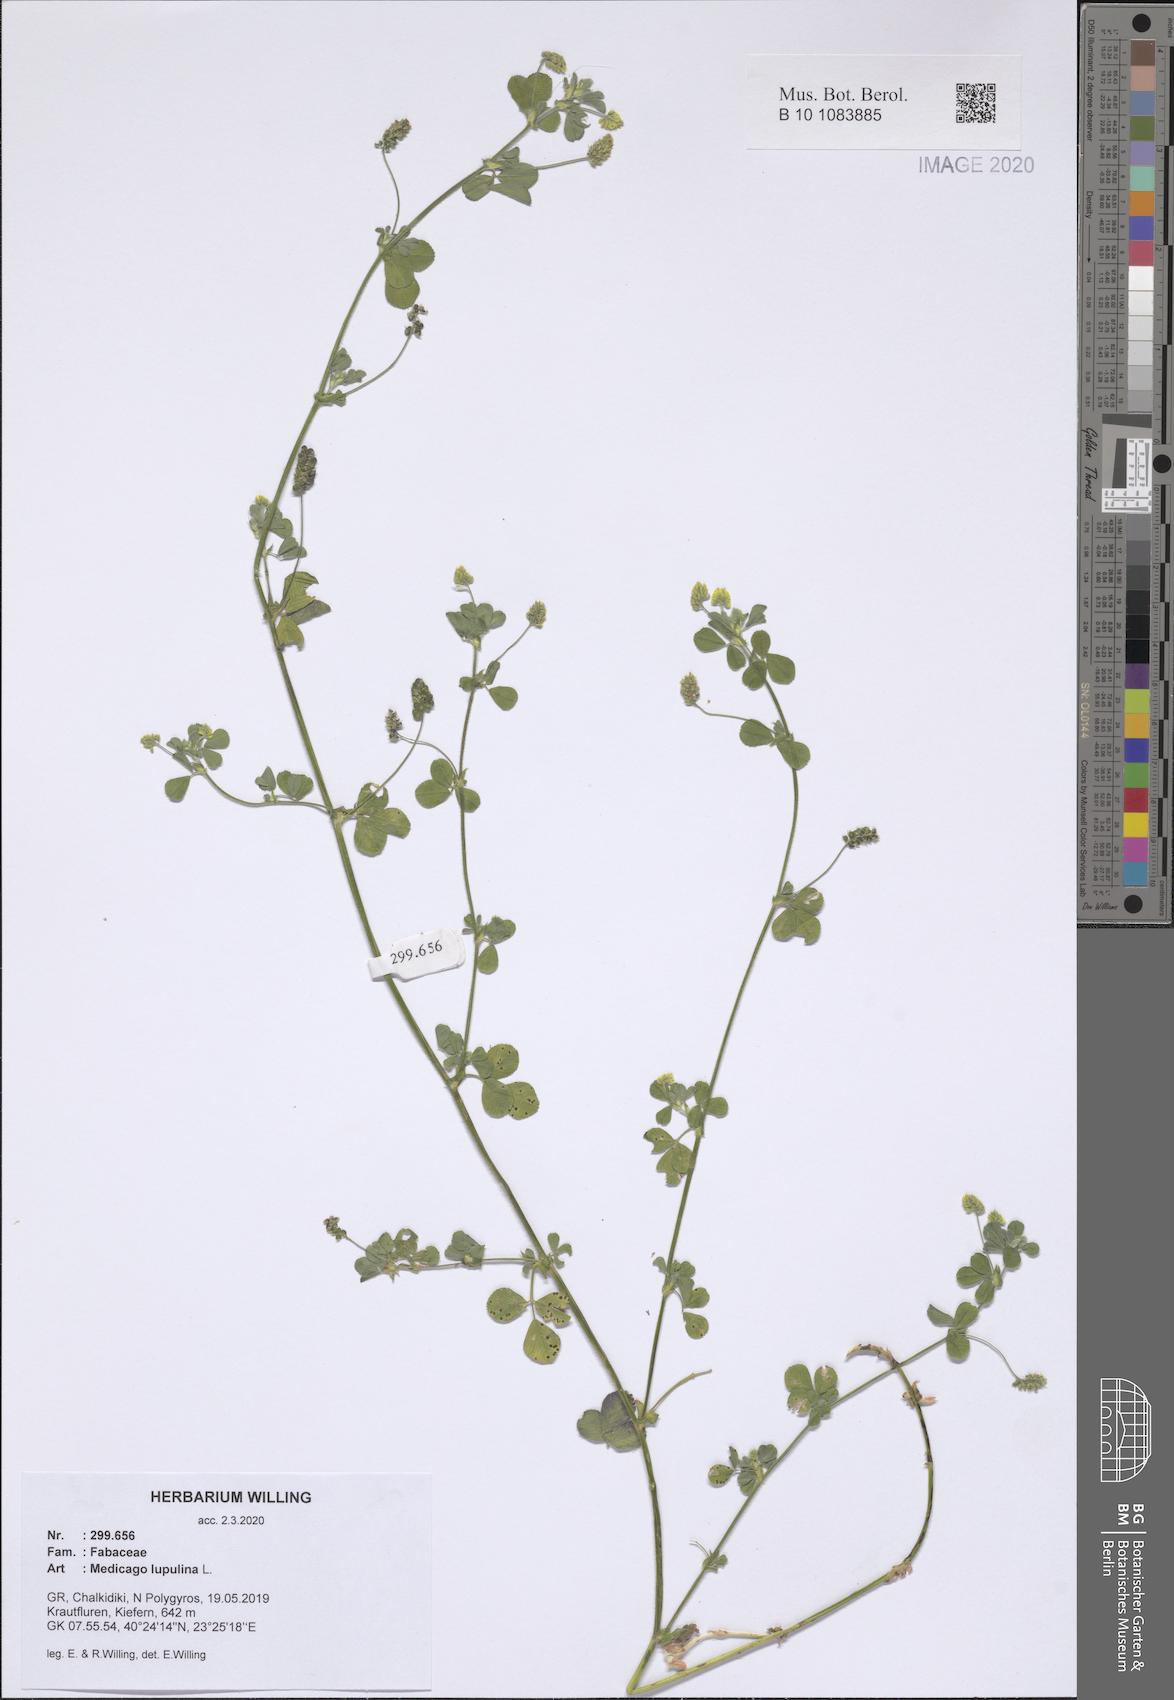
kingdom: Plantae
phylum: Tracheophyta
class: Magnoliopsida
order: Fabales
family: Fabaceae
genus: Medicago
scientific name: Medicago lupulina
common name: Black medick
